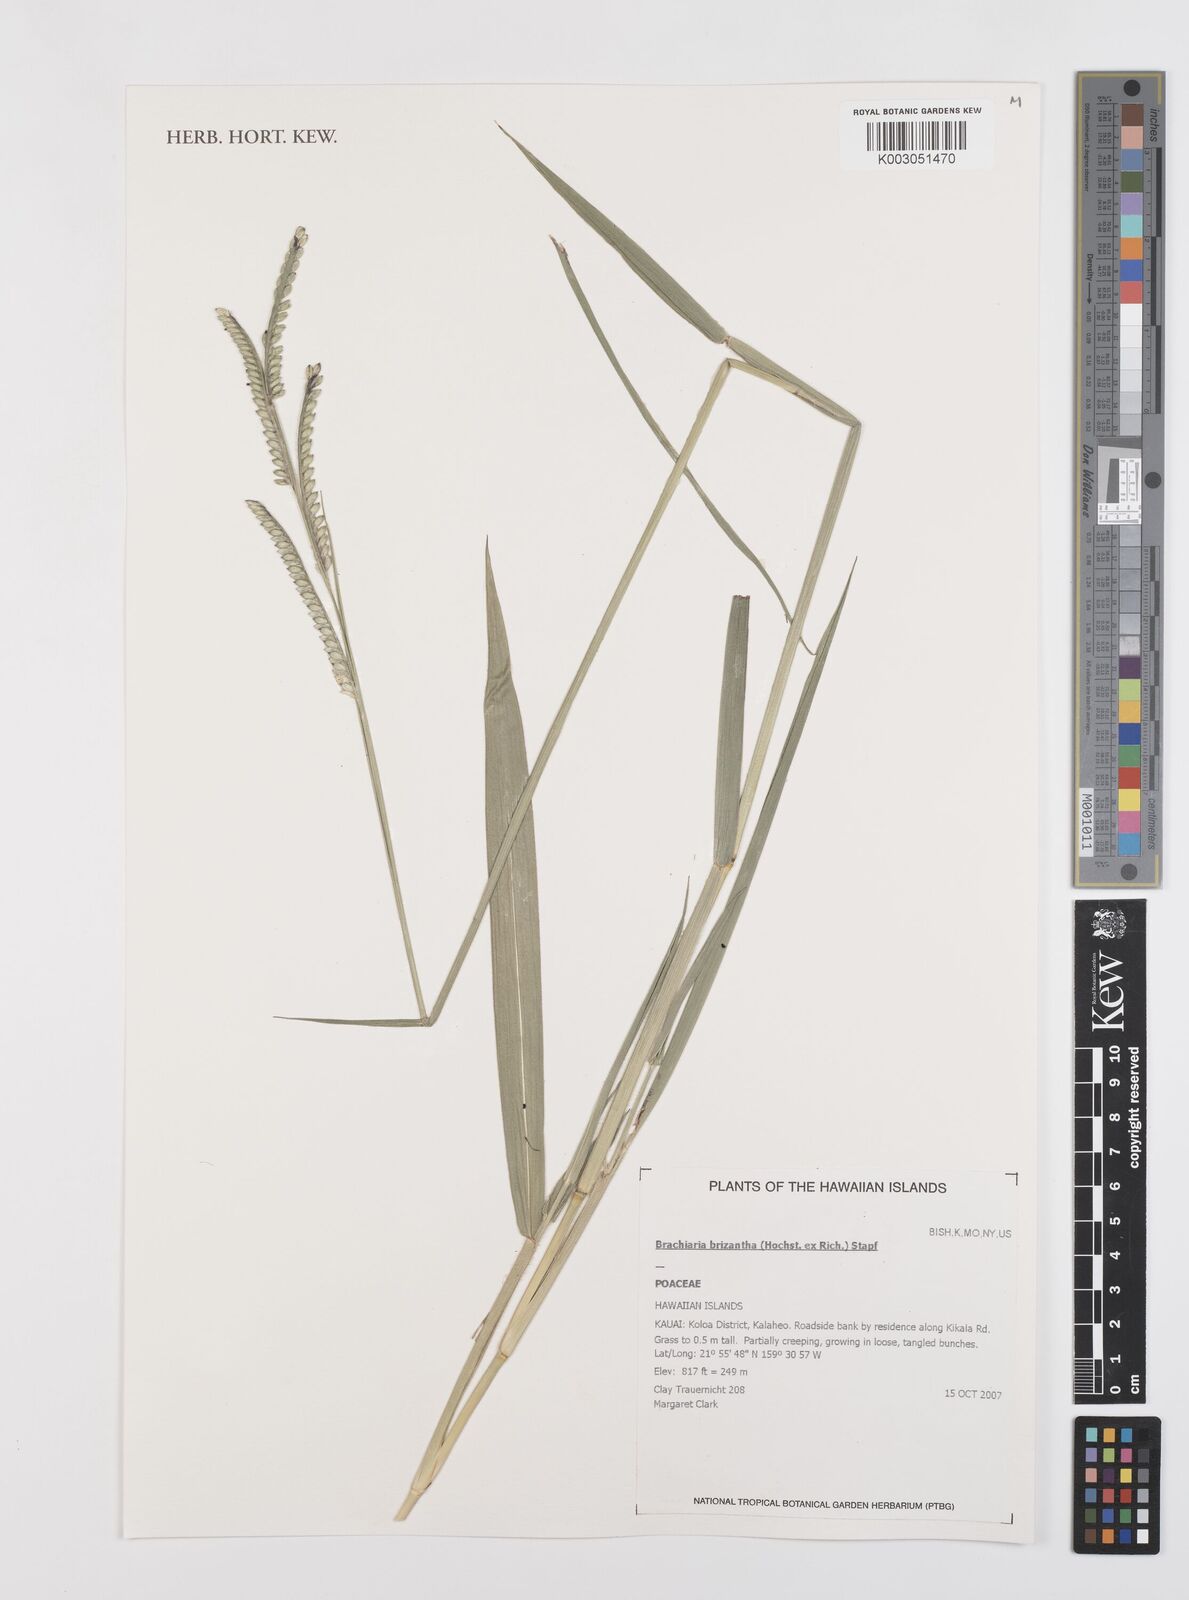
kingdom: Plantae
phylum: Tracheophyta
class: Liliopsida
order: Poales
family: Poaceae
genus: Urochloa
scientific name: Urochloa brizantha
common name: Palisade signalgrass
